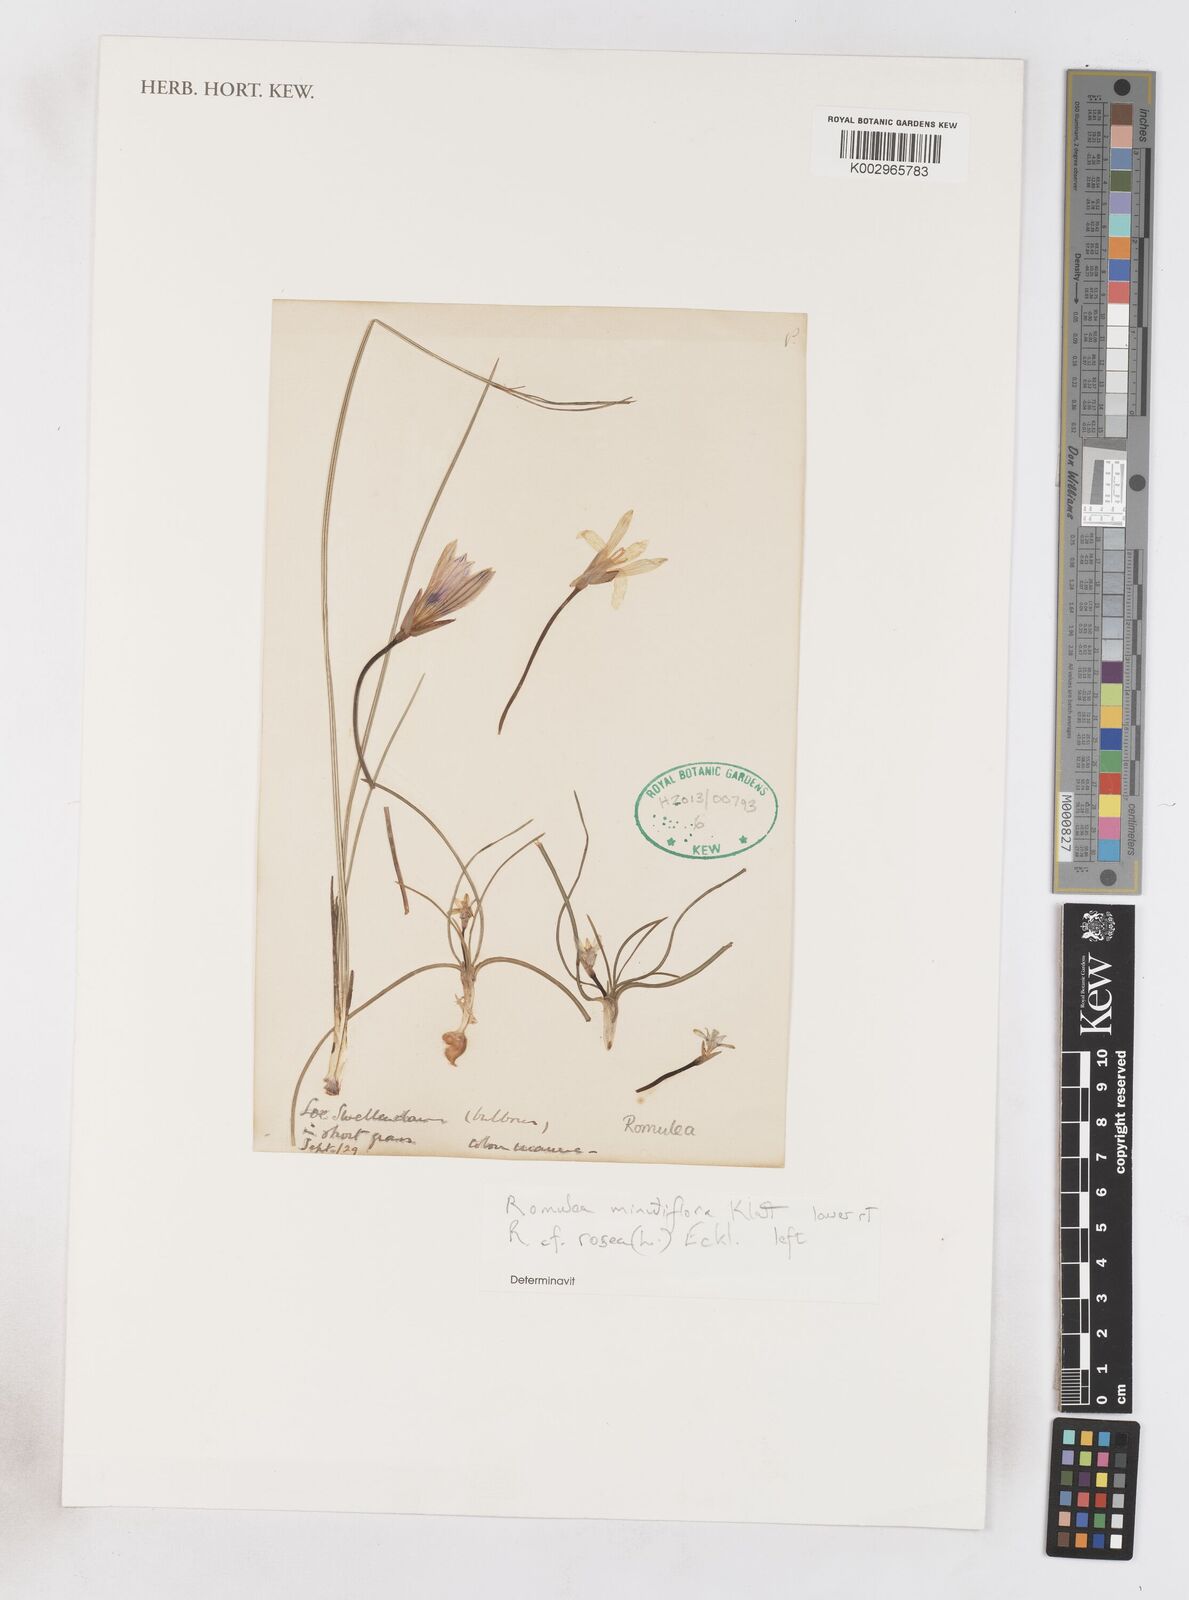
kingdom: Plantae
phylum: Tracheophyta
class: Liliopsida
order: Asparagales
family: Iridaceae
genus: Romulea
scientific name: Romulea rosea
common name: Oniongrass
